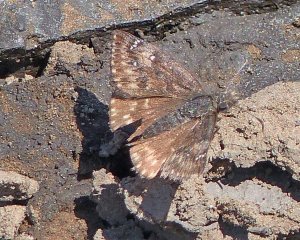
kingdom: Animalia
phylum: Arthropoda
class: Insecta
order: Lepidoptera
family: Hesperiidae
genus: Gesta
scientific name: Gesta
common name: Persius Duskywing
